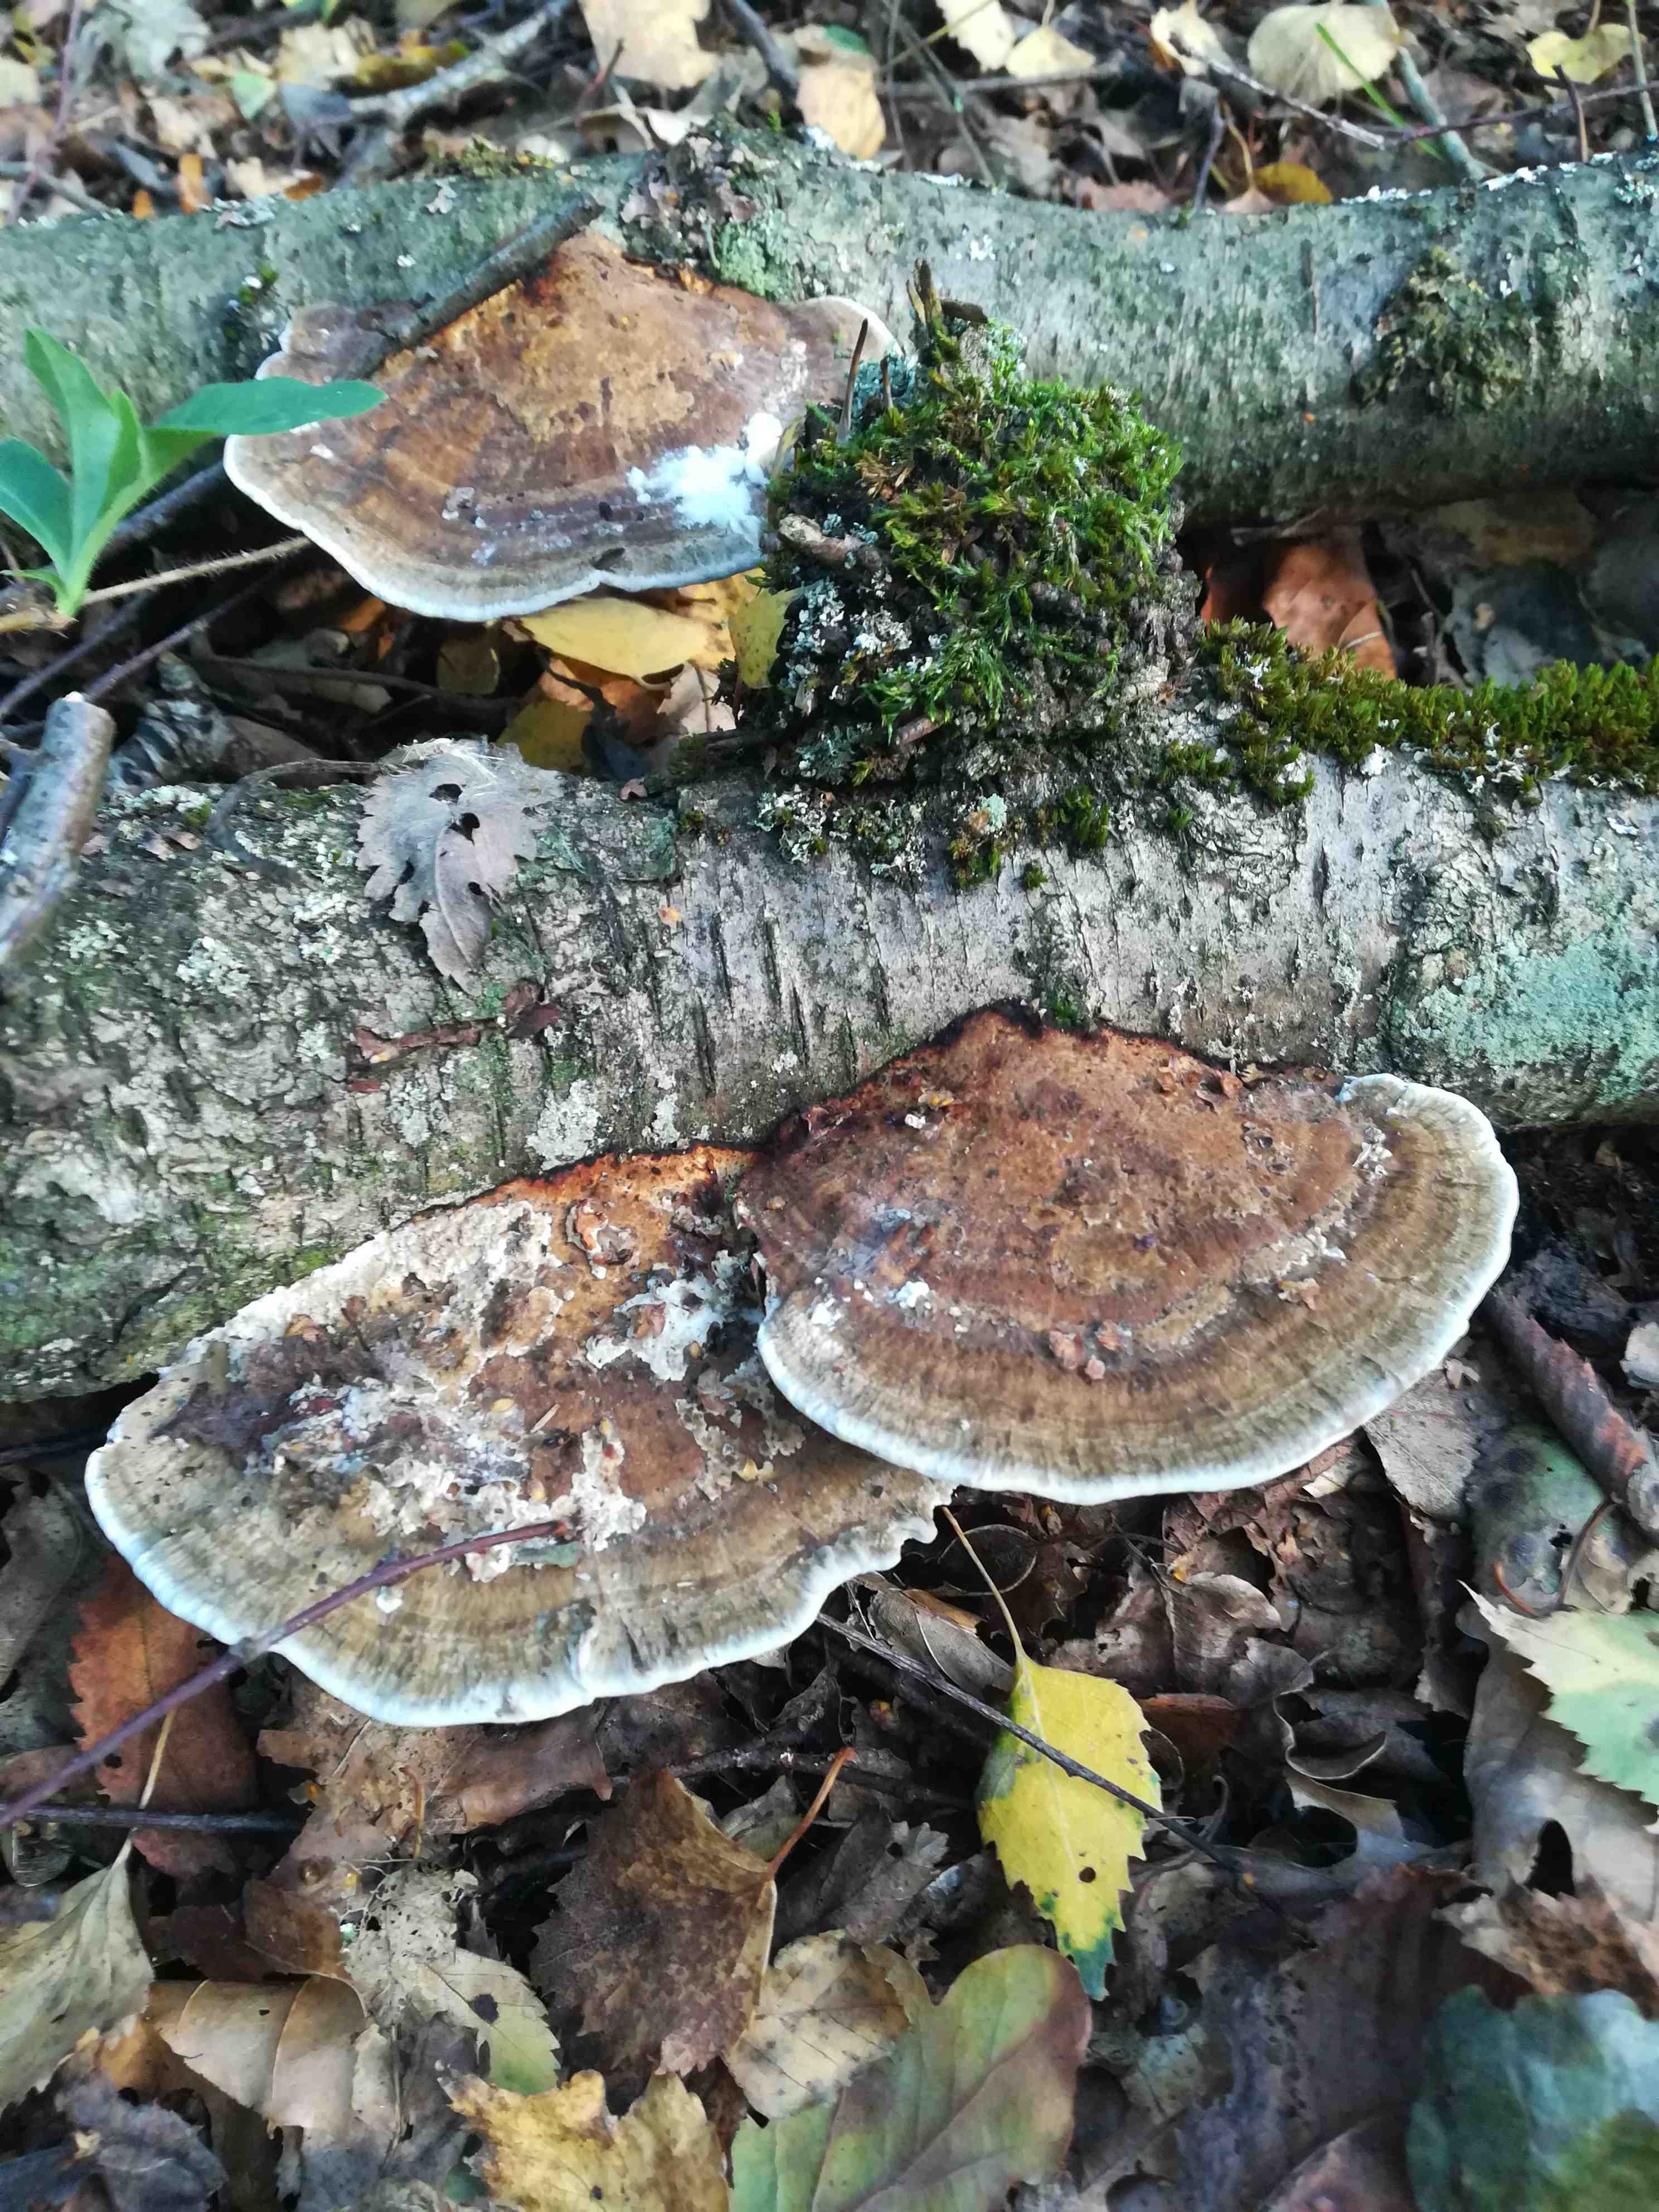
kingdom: Fungi
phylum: Basidiomycota
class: Agaricomycetes
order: Polyporales
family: Polyporaceae
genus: Daedaleopsis
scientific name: Daedaleopsis confragosa
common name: rødmende læderporesvamp
